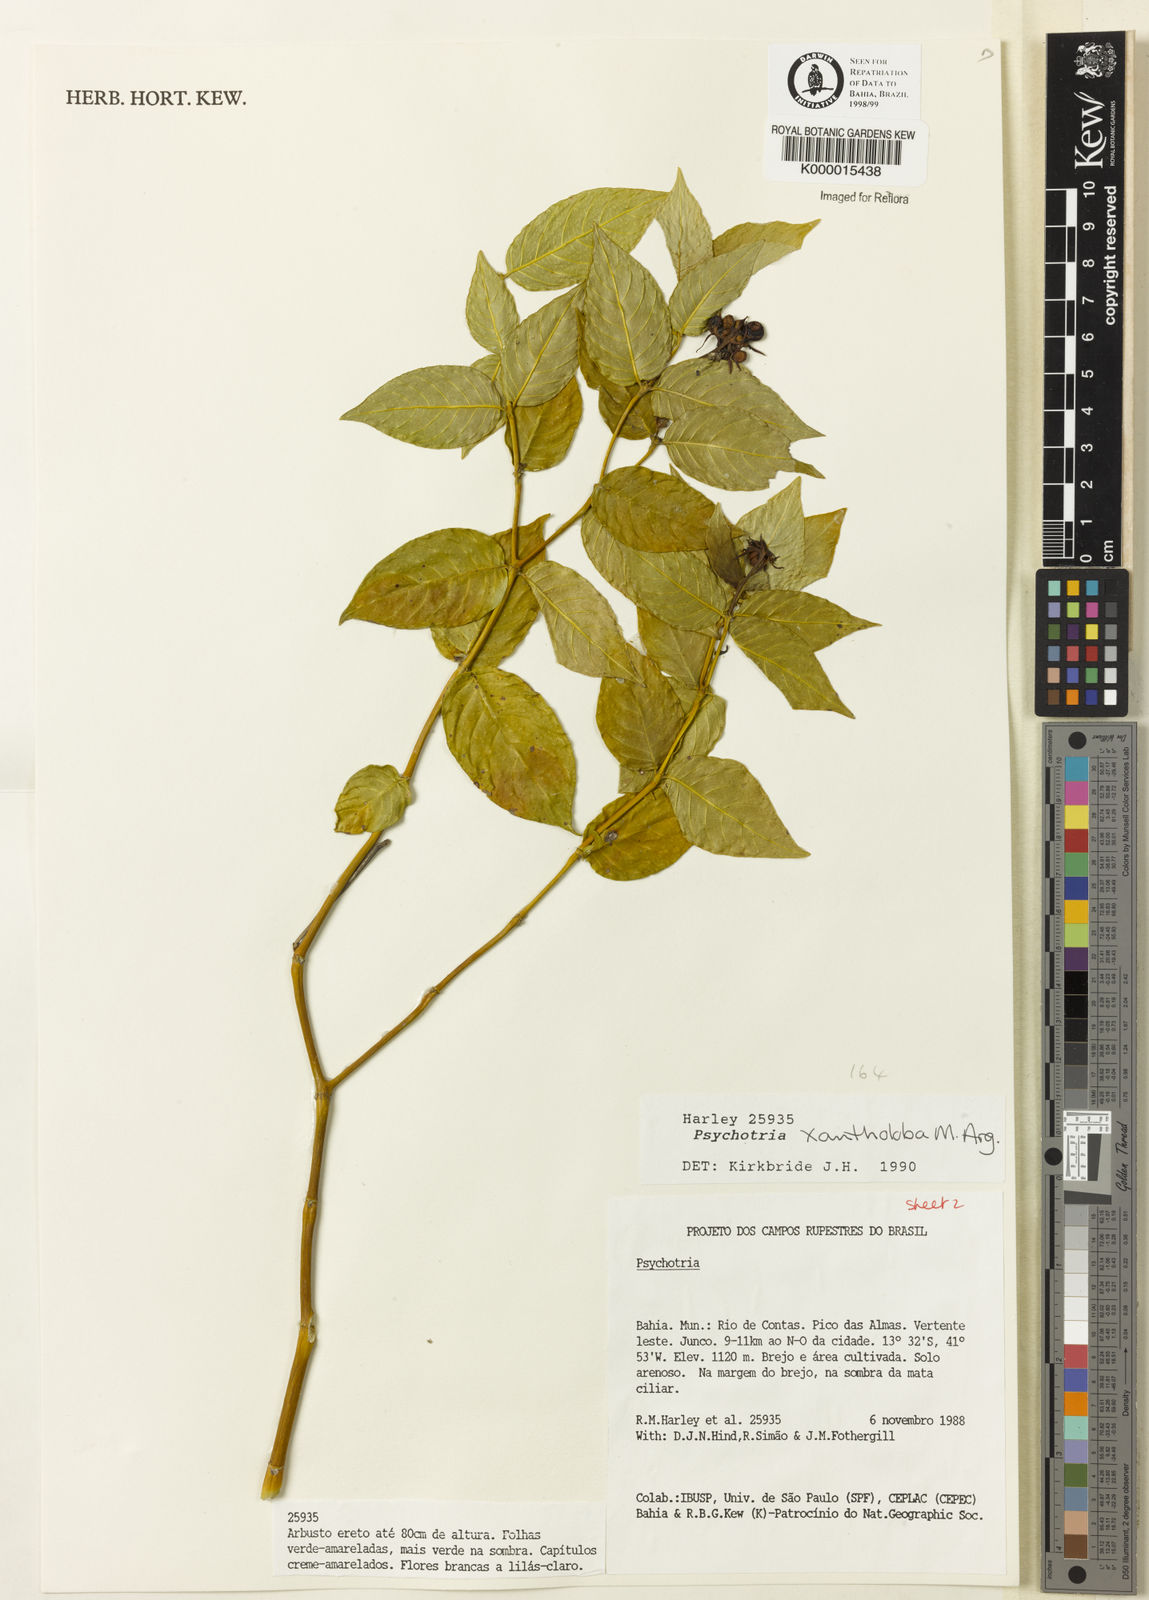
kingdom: Plantae
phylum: Tracheophyta
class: Magnoliopsida
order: Gentianales
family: Rubiaceae
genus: Psychotria
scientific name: Psychotria xantholoba
